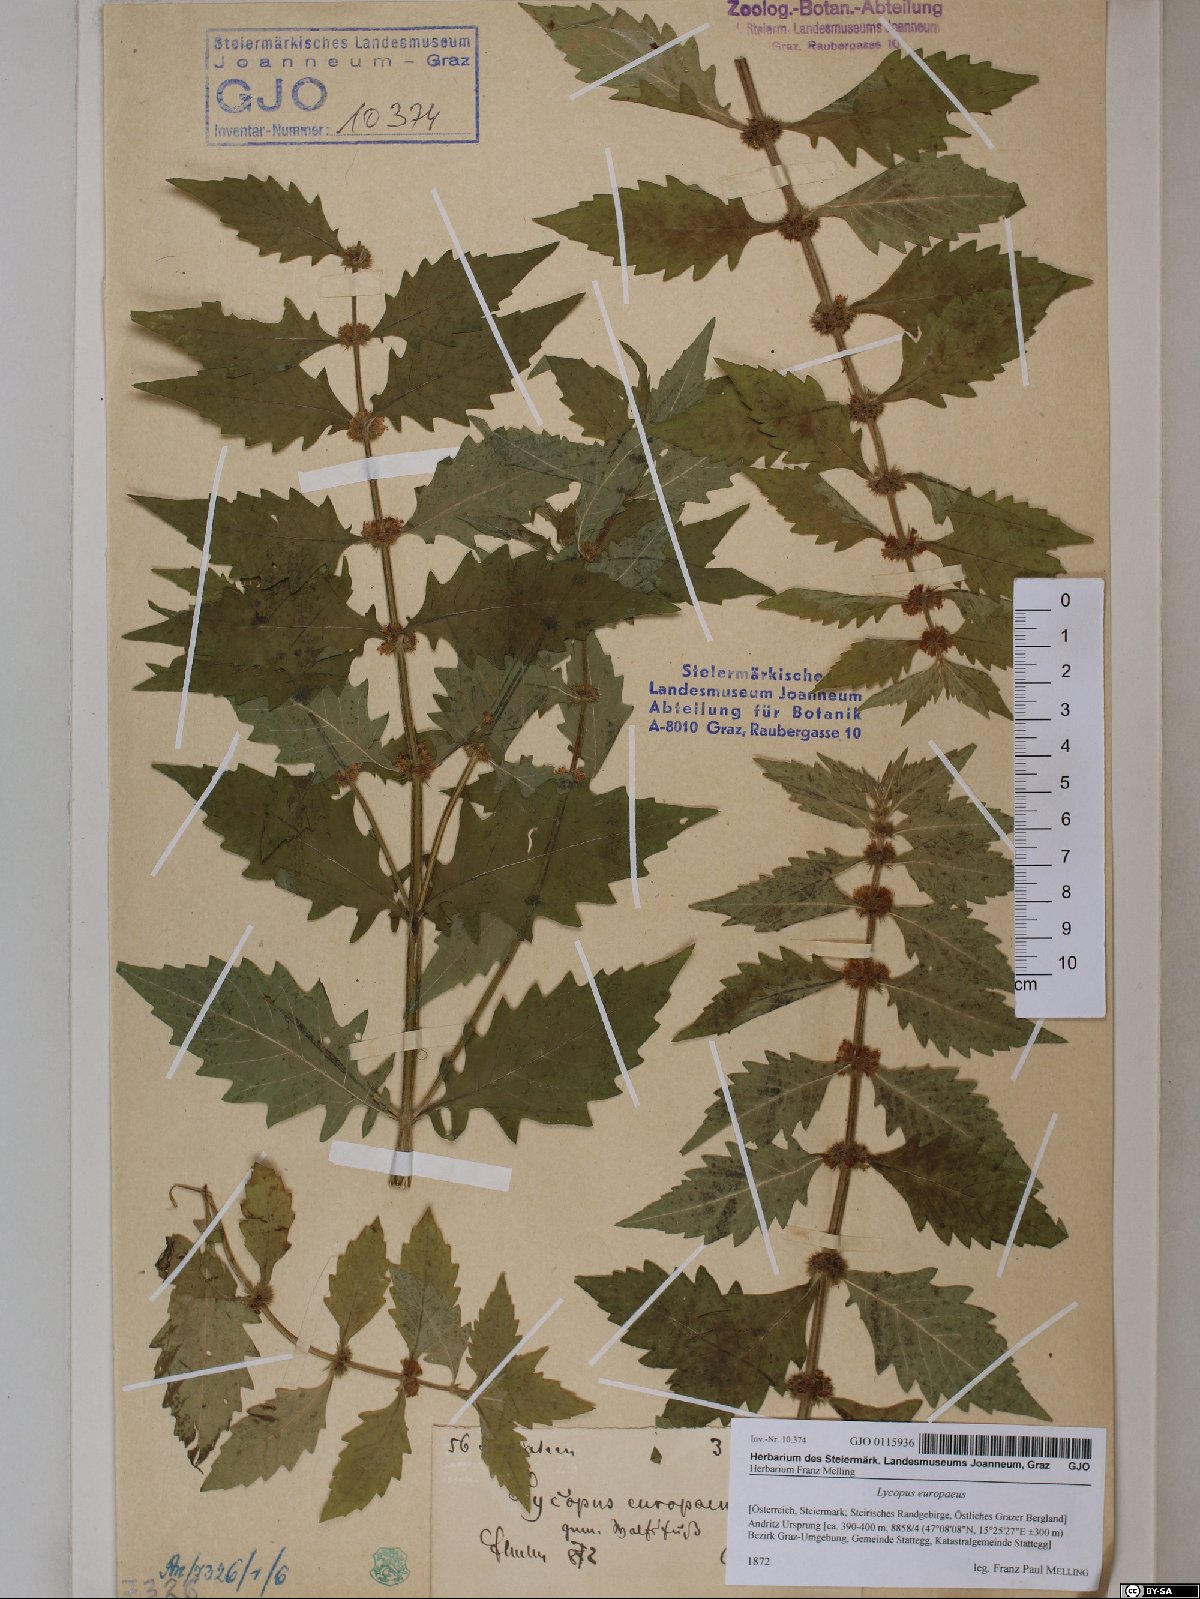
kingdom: Plantae
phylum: Tracheophyta
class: Magnoliopsida
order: Lamiales
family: Lamiaceae
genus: Lycopus
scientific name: Lycopus europaeus
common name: European bugleweed
